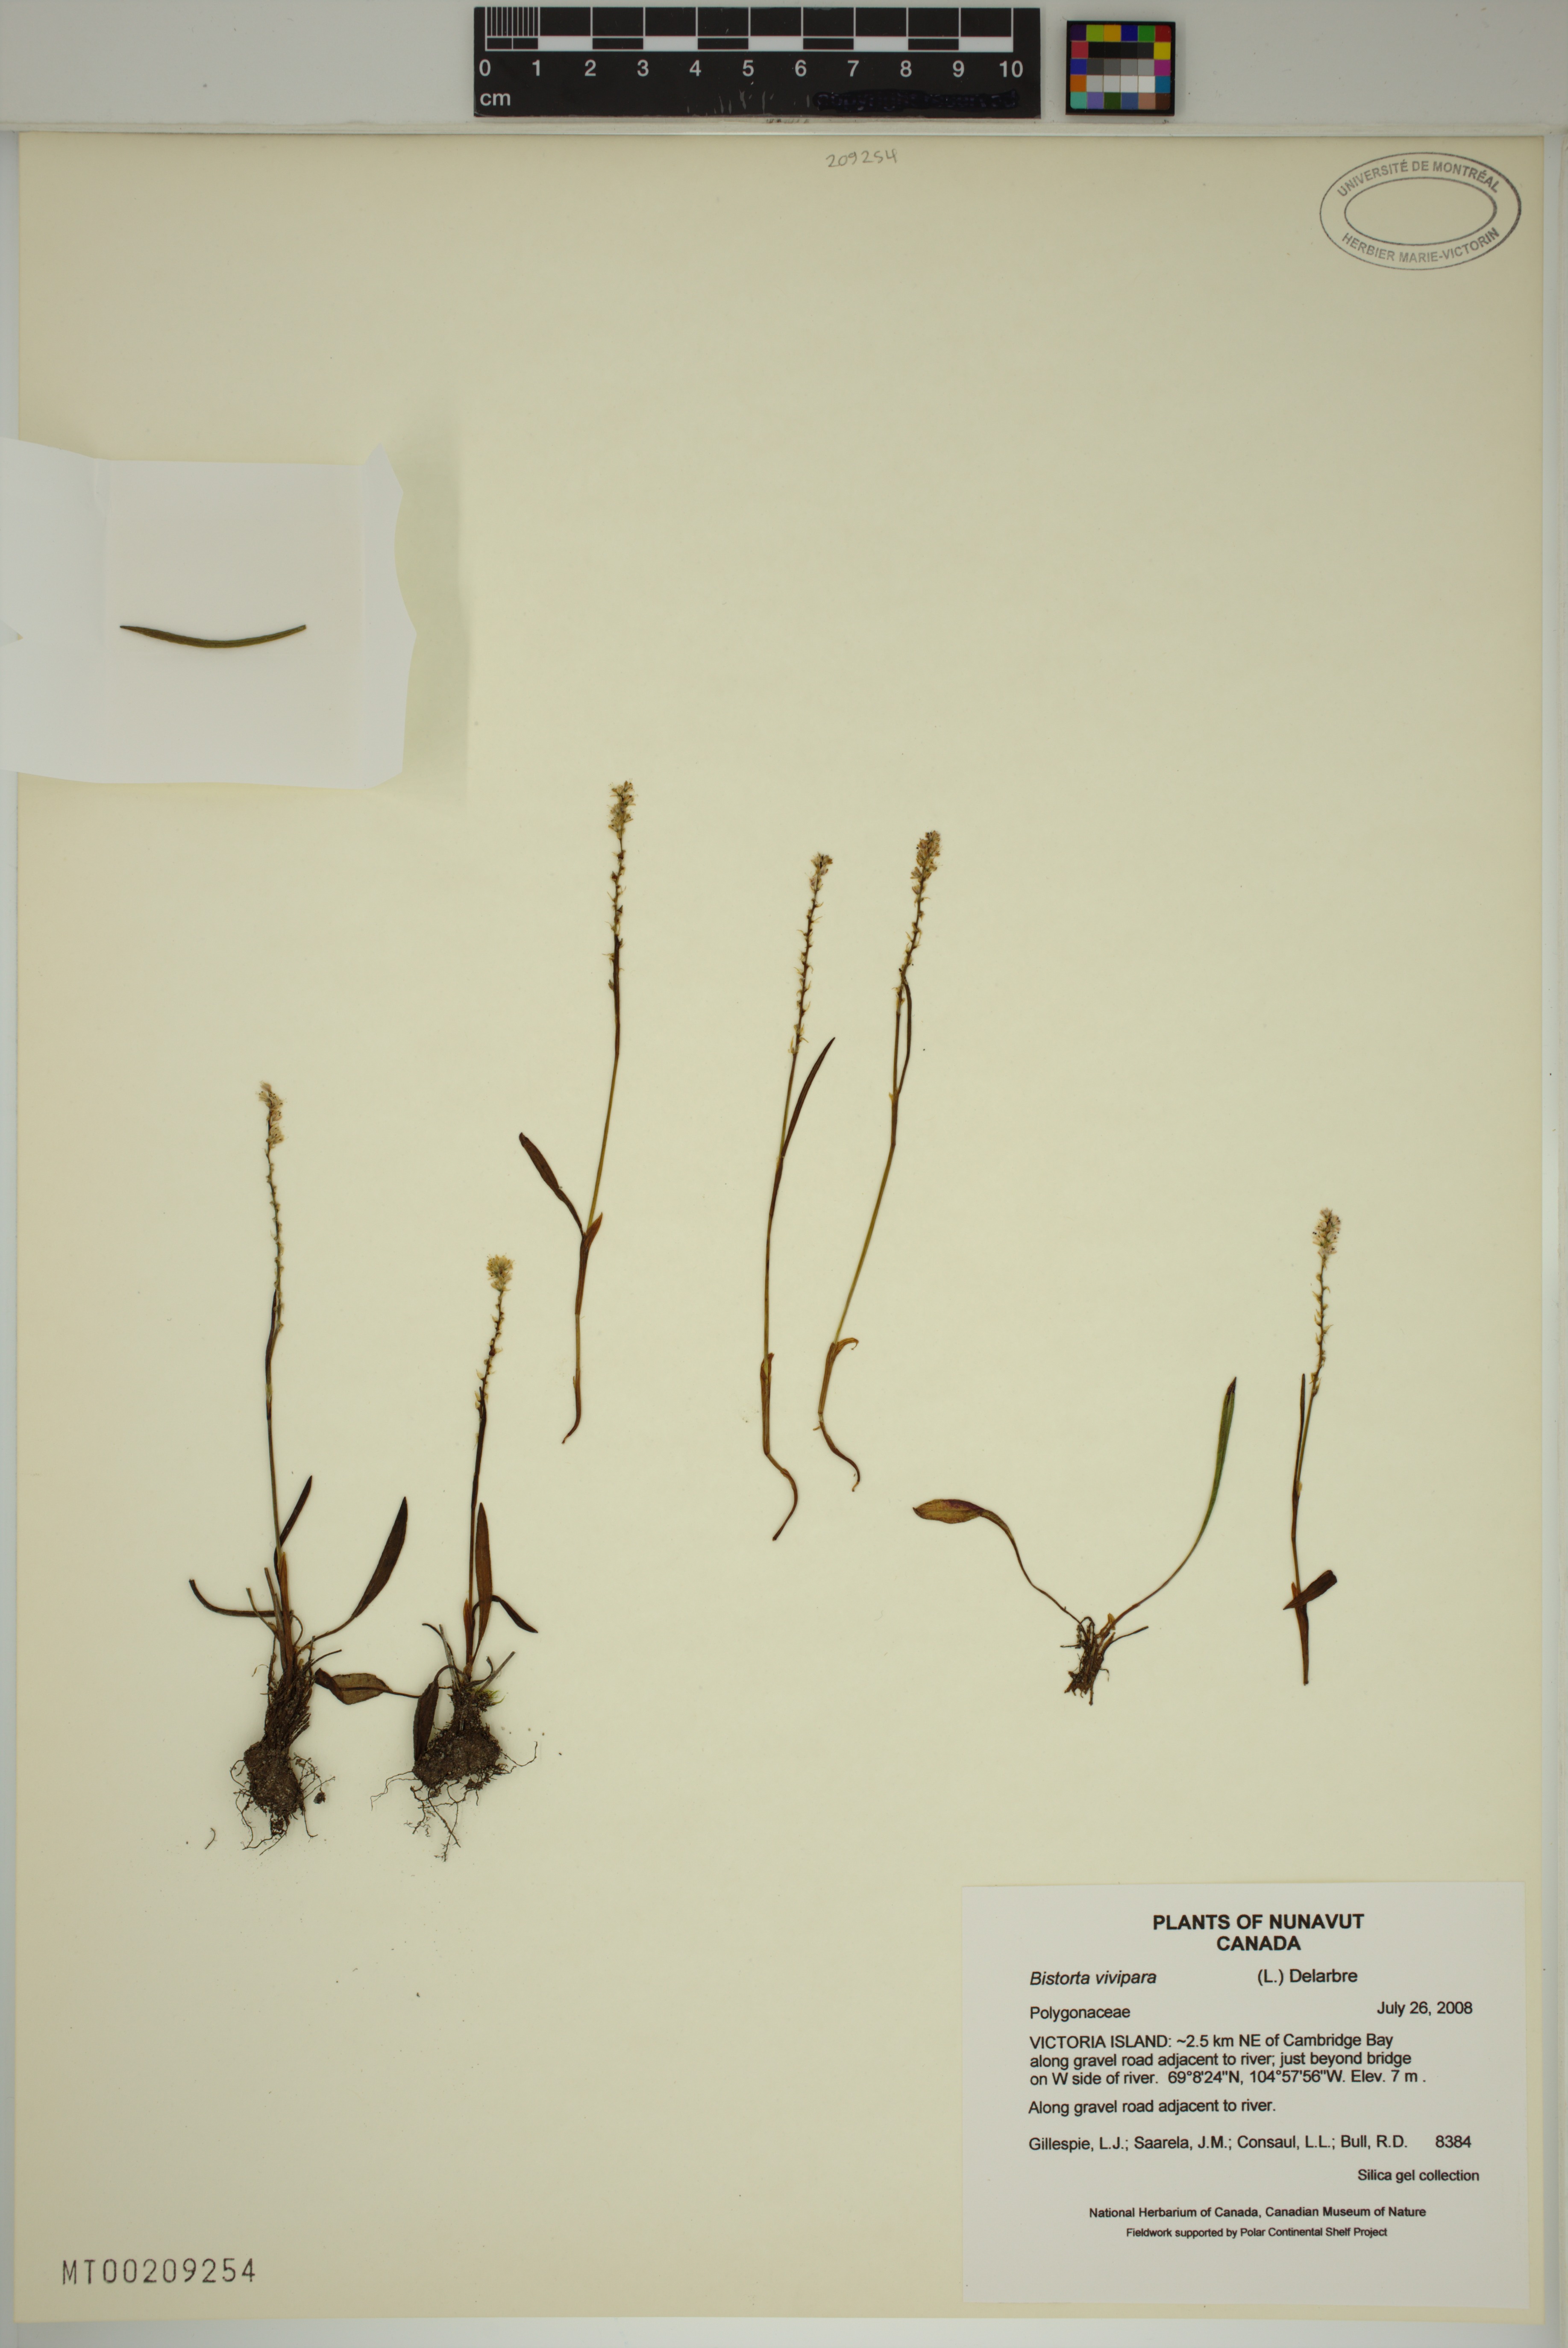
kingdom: Plantae
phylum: Tracheophyta
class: Magnoliopsida
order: Caryophyllales
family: Polygonaceae
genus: Bistorta
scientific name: Bistorta vivipara
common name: Alpine bistort
